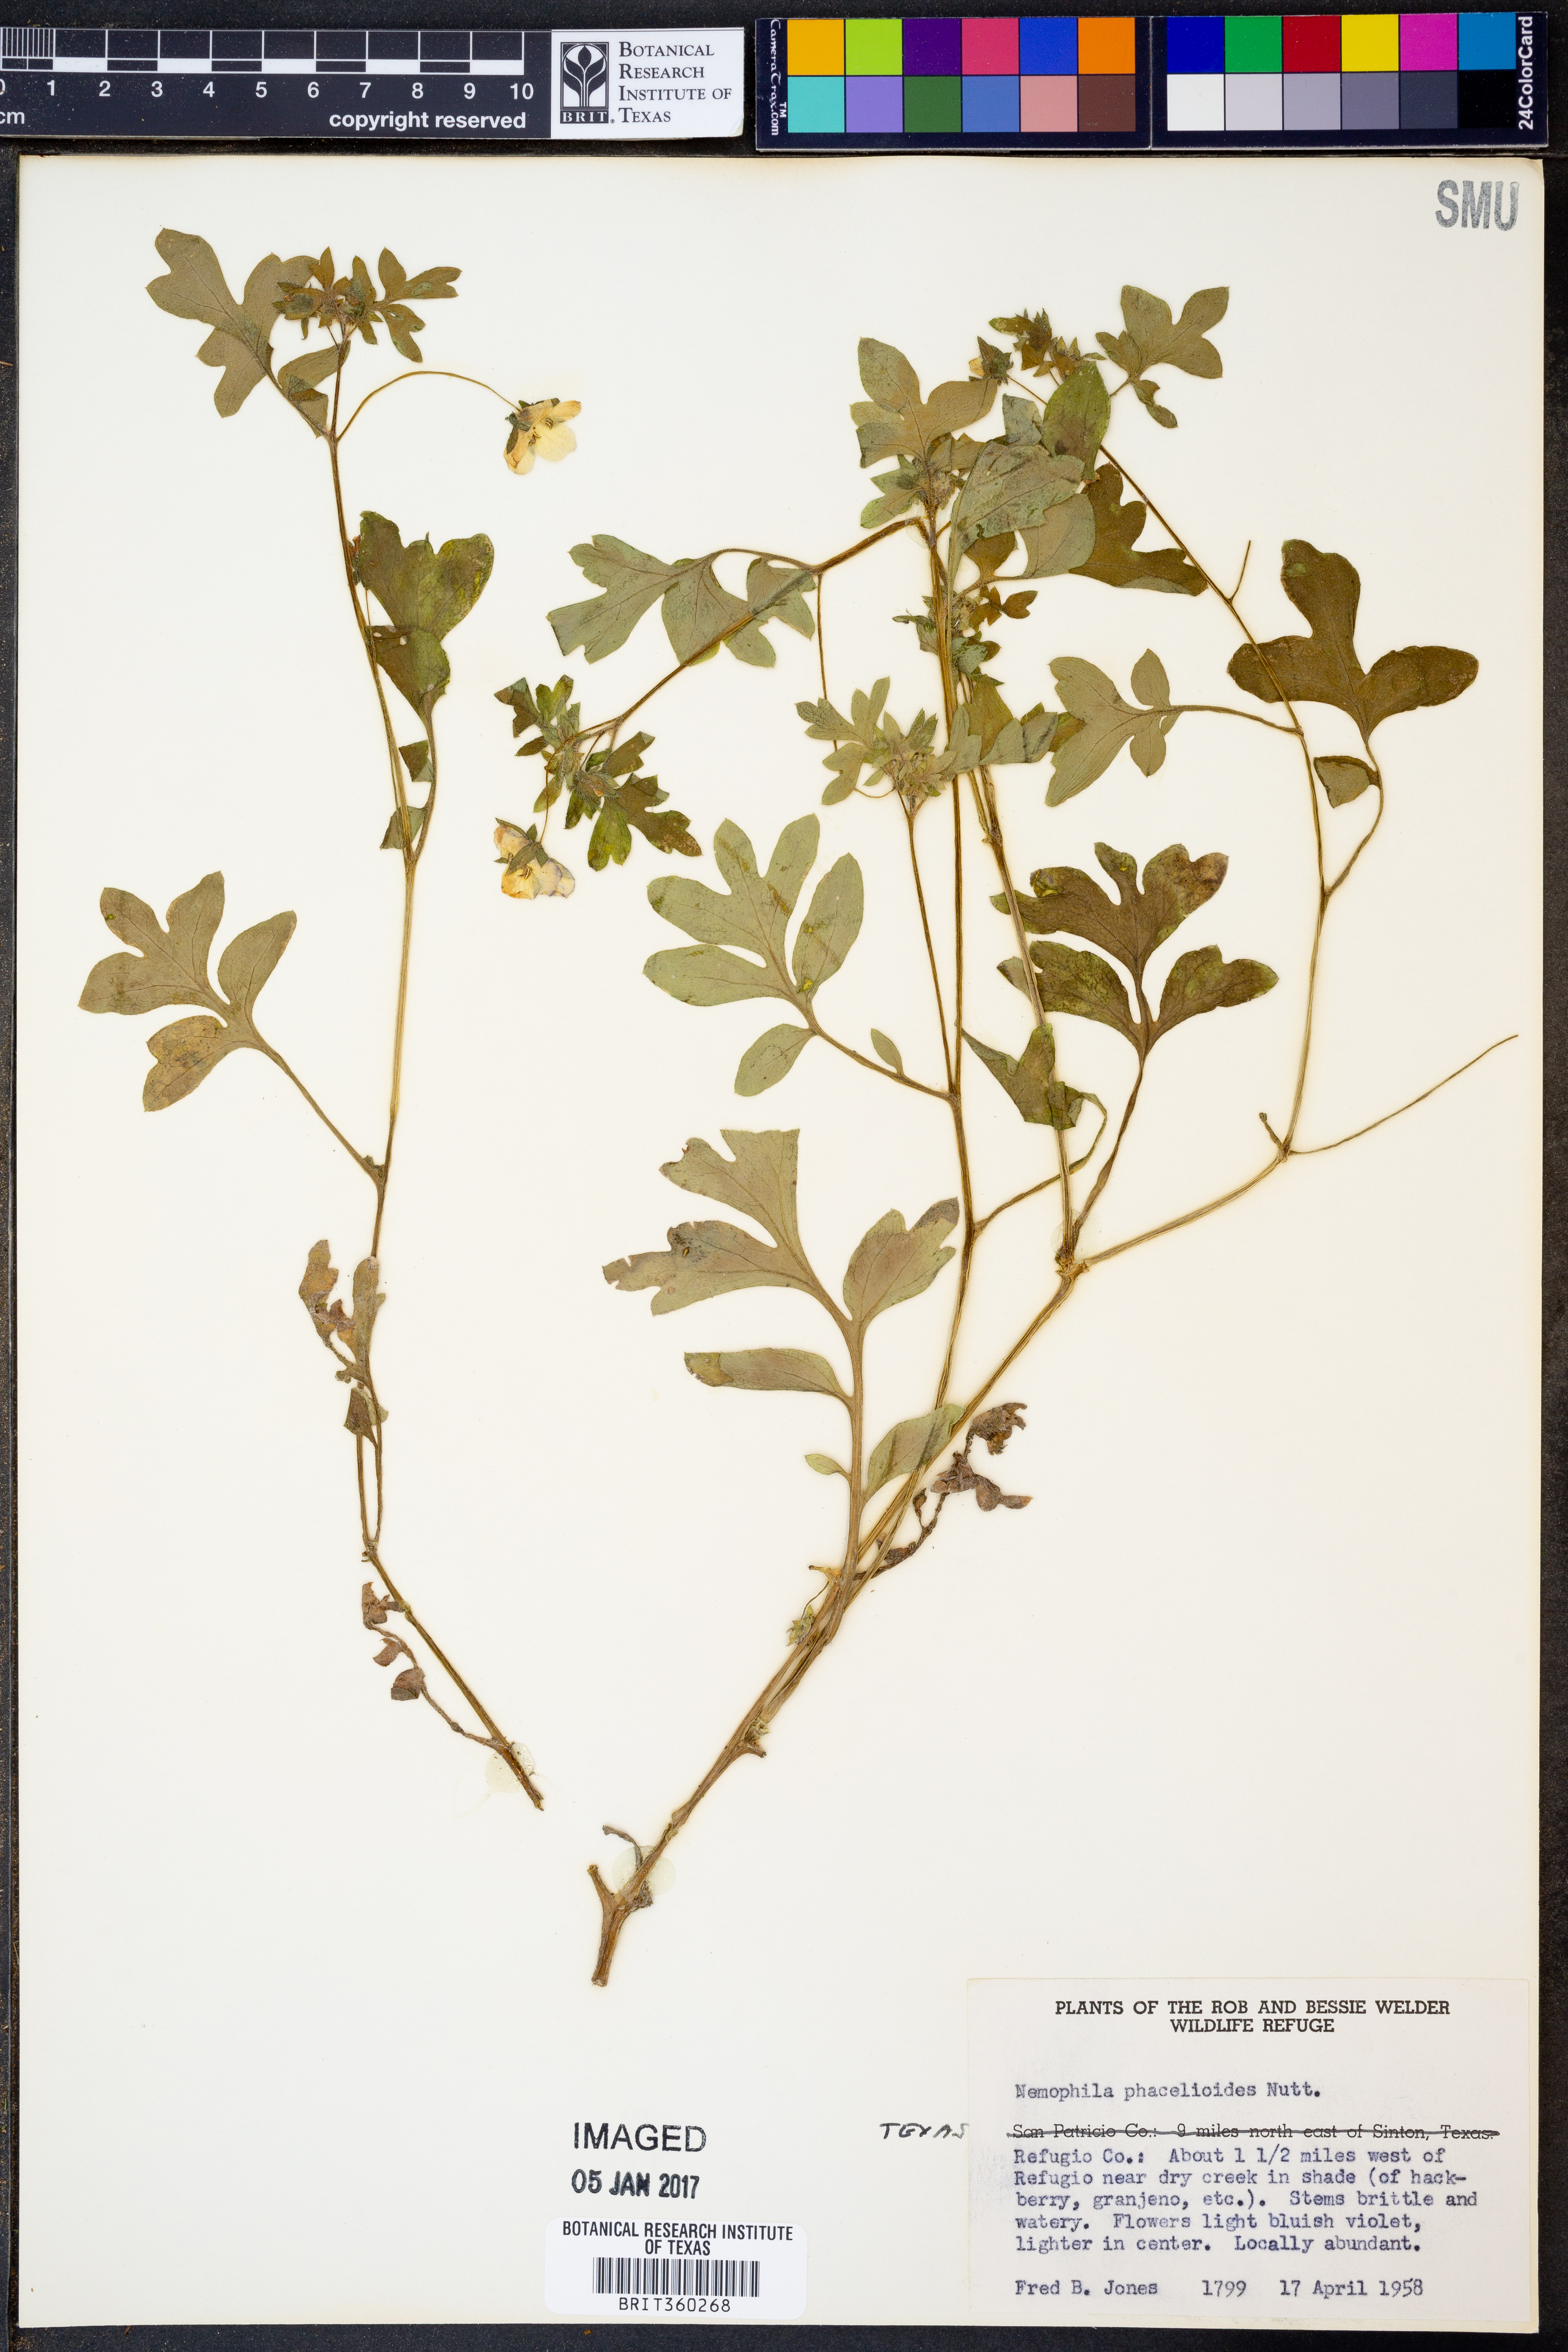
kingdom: Plantae
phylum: Tracheophyta
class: Magnoliopsida
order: Boraginales
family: Hydrophyllaceae
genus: Nemophila
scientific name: Nemophila phacelioides
